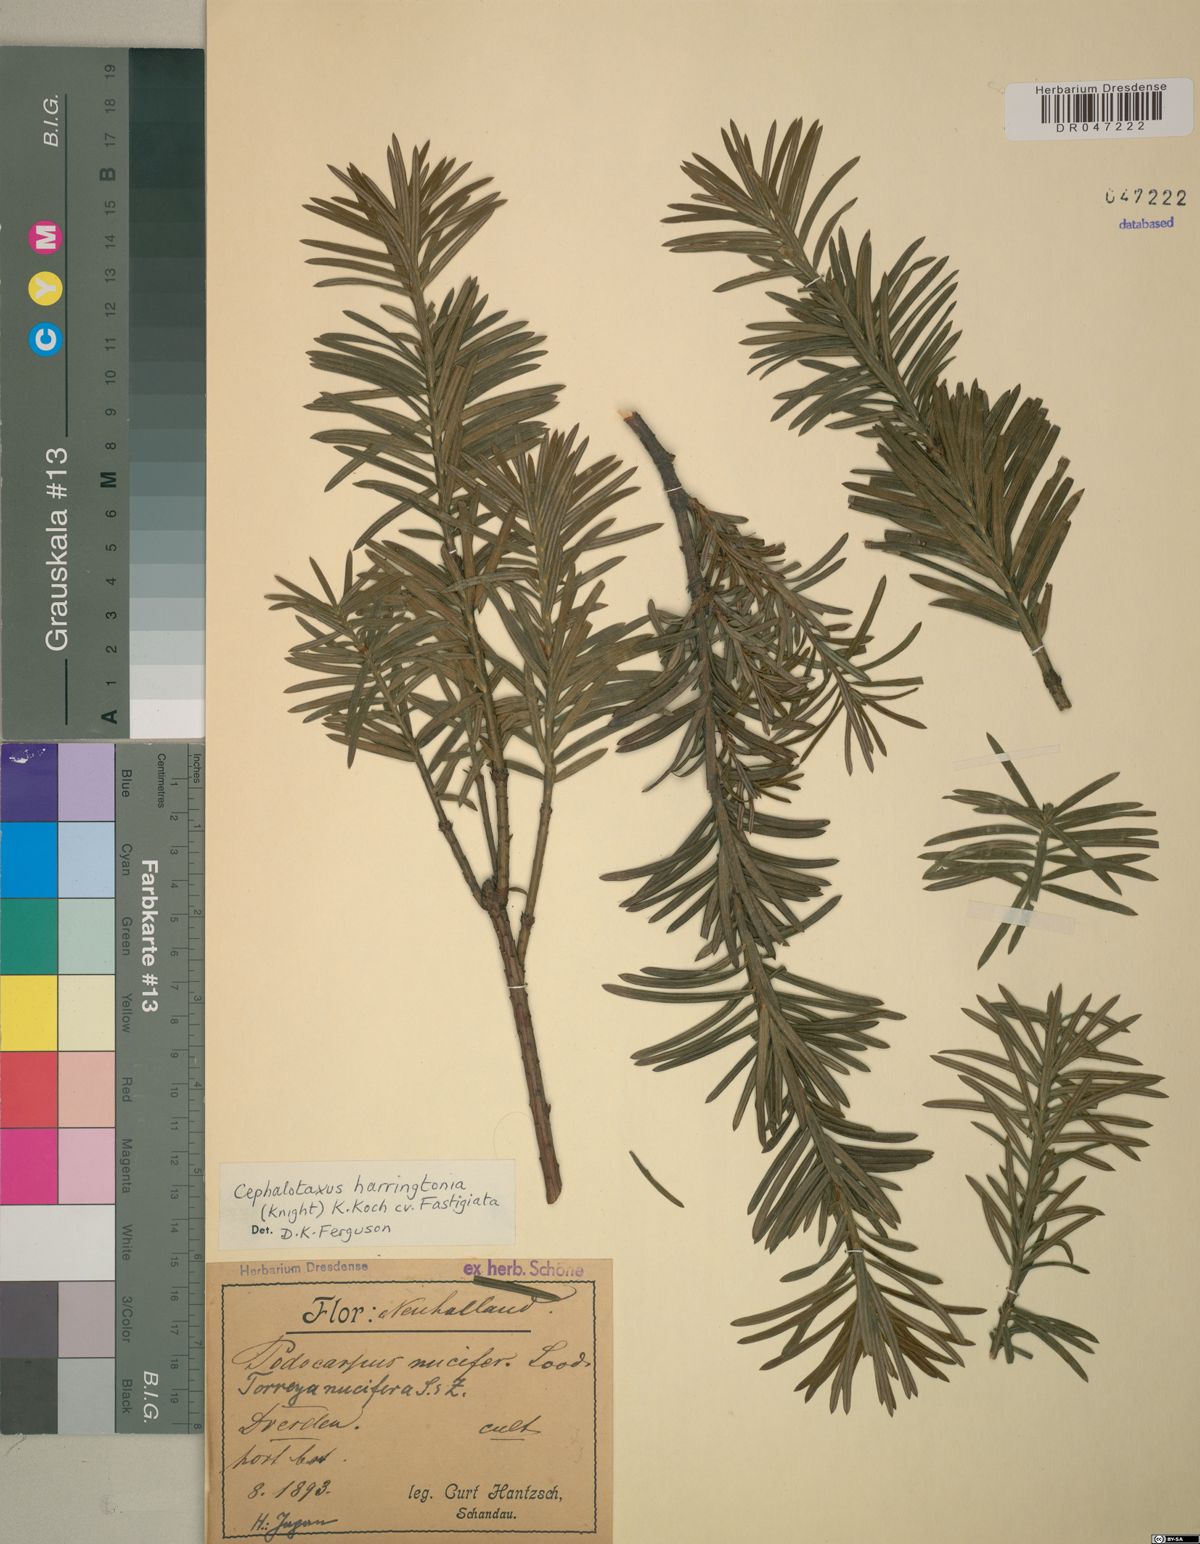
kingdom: Plantae
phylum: Tracheophyta
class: Pinopsida
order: Pinales
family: Cephalotaxaceae
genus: Cephalotaxus
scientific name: Cephalotaxus harringtonia
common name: Japanese plum-yew
